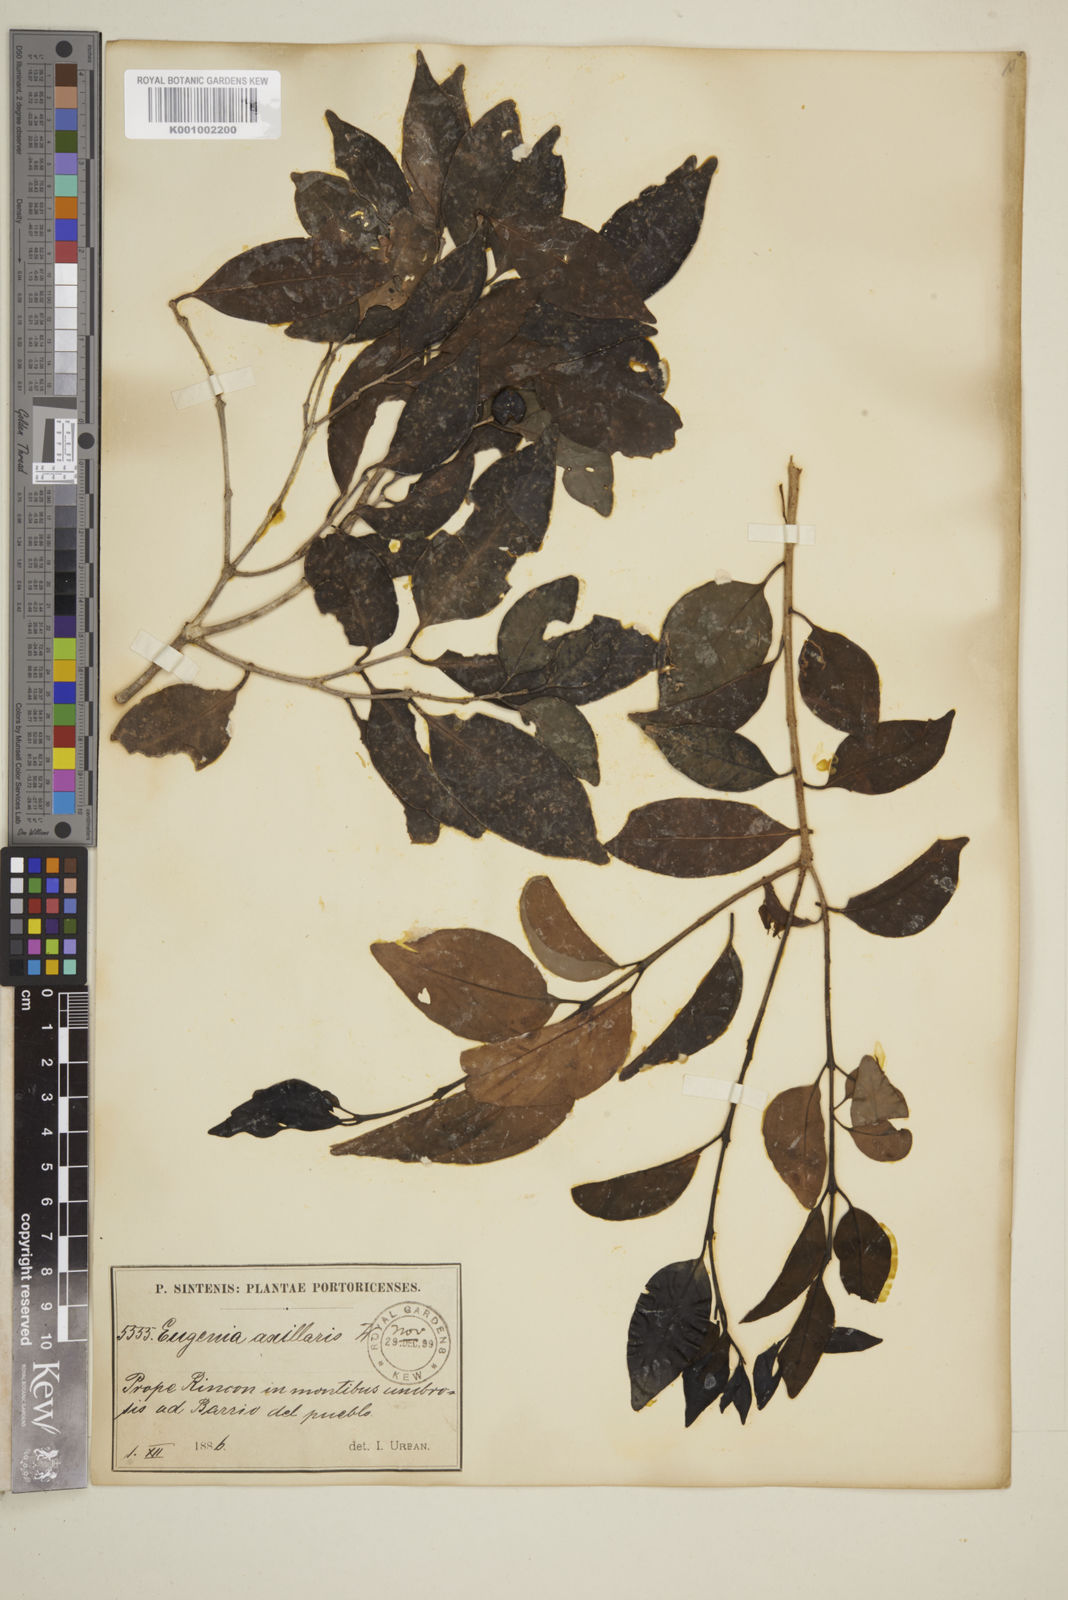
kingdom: Plantae
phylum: Tracheophyta
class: Magnoliopsida
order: Myrtales
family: Myrtaceae
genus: Eugenia
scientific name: Eugenia axillaris
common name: Choaky berry
